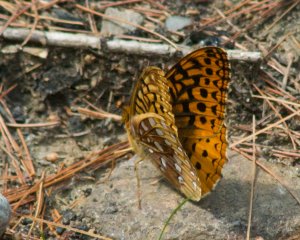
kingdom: Animalia
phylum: Arthropoda
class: Insecta
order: Lepidoptera
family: Nymphalidae
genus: Speyeria
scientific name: Speyeria cybele
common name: Great Spangled Fritillary
